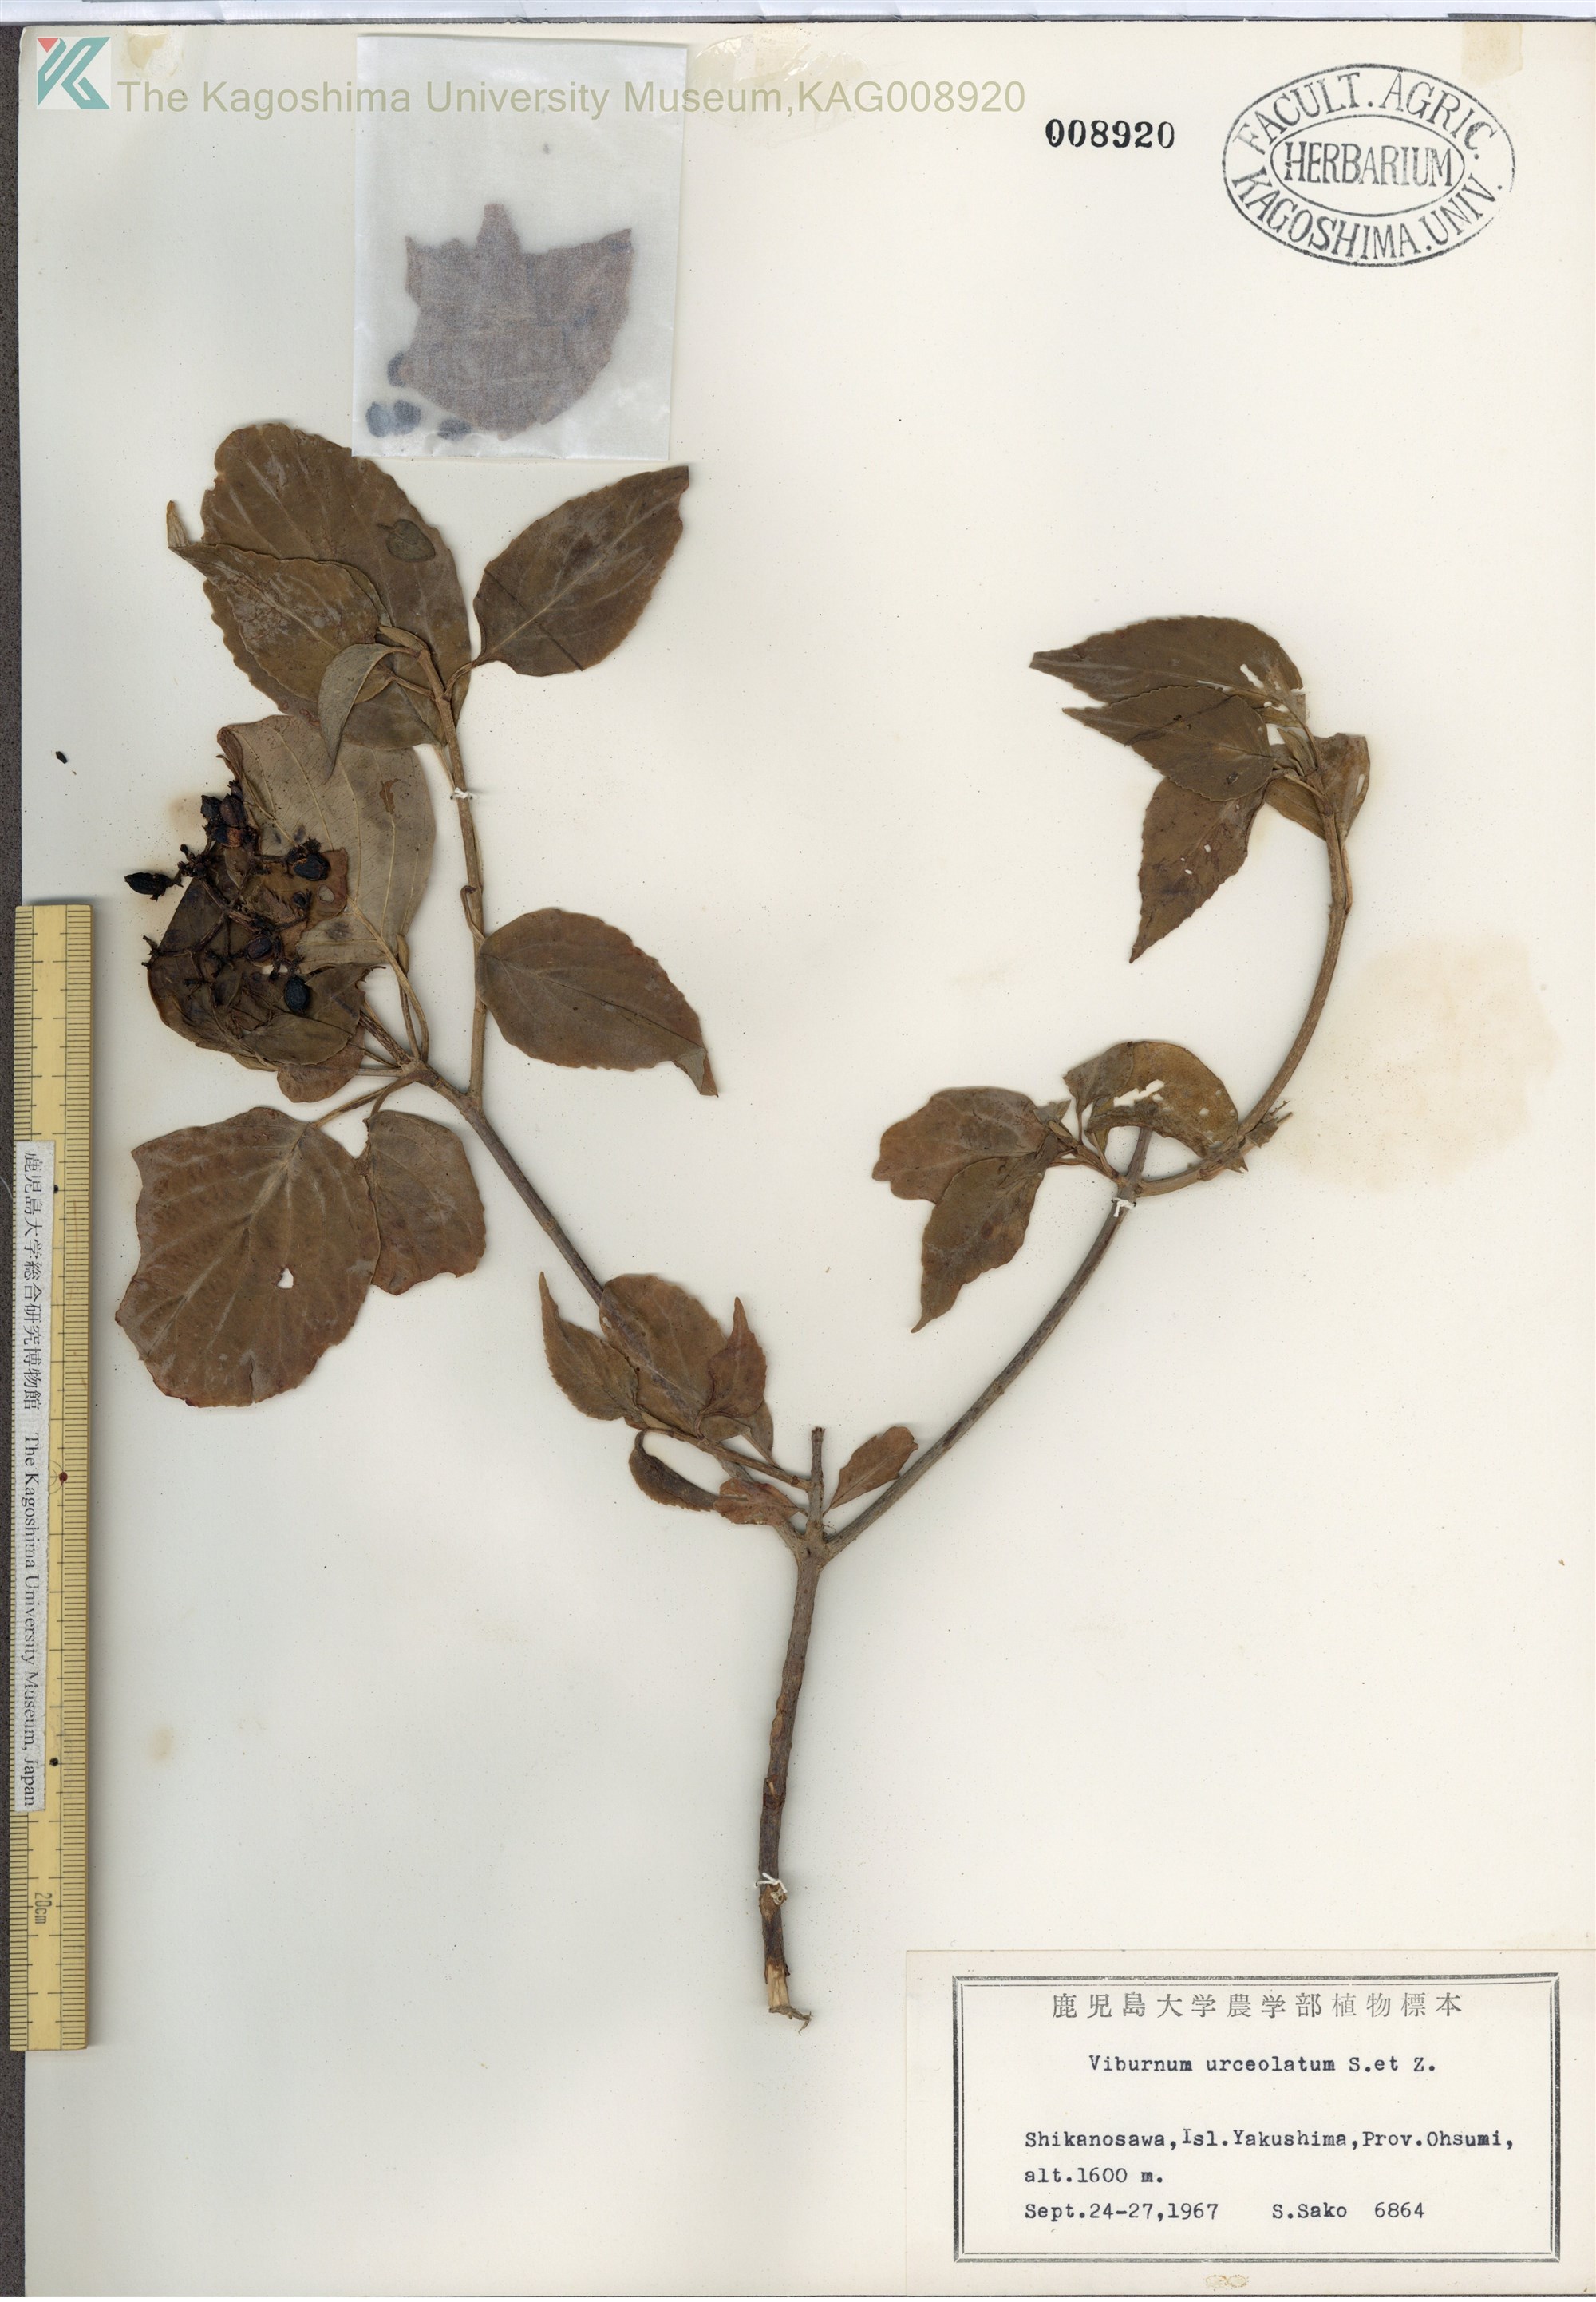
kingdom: Plantae
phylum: Tracheophyta
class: Magnoliopsida
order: Dipsacales
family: Viburnaceae
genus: Viburnum
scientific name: Viburnum urceolatum
